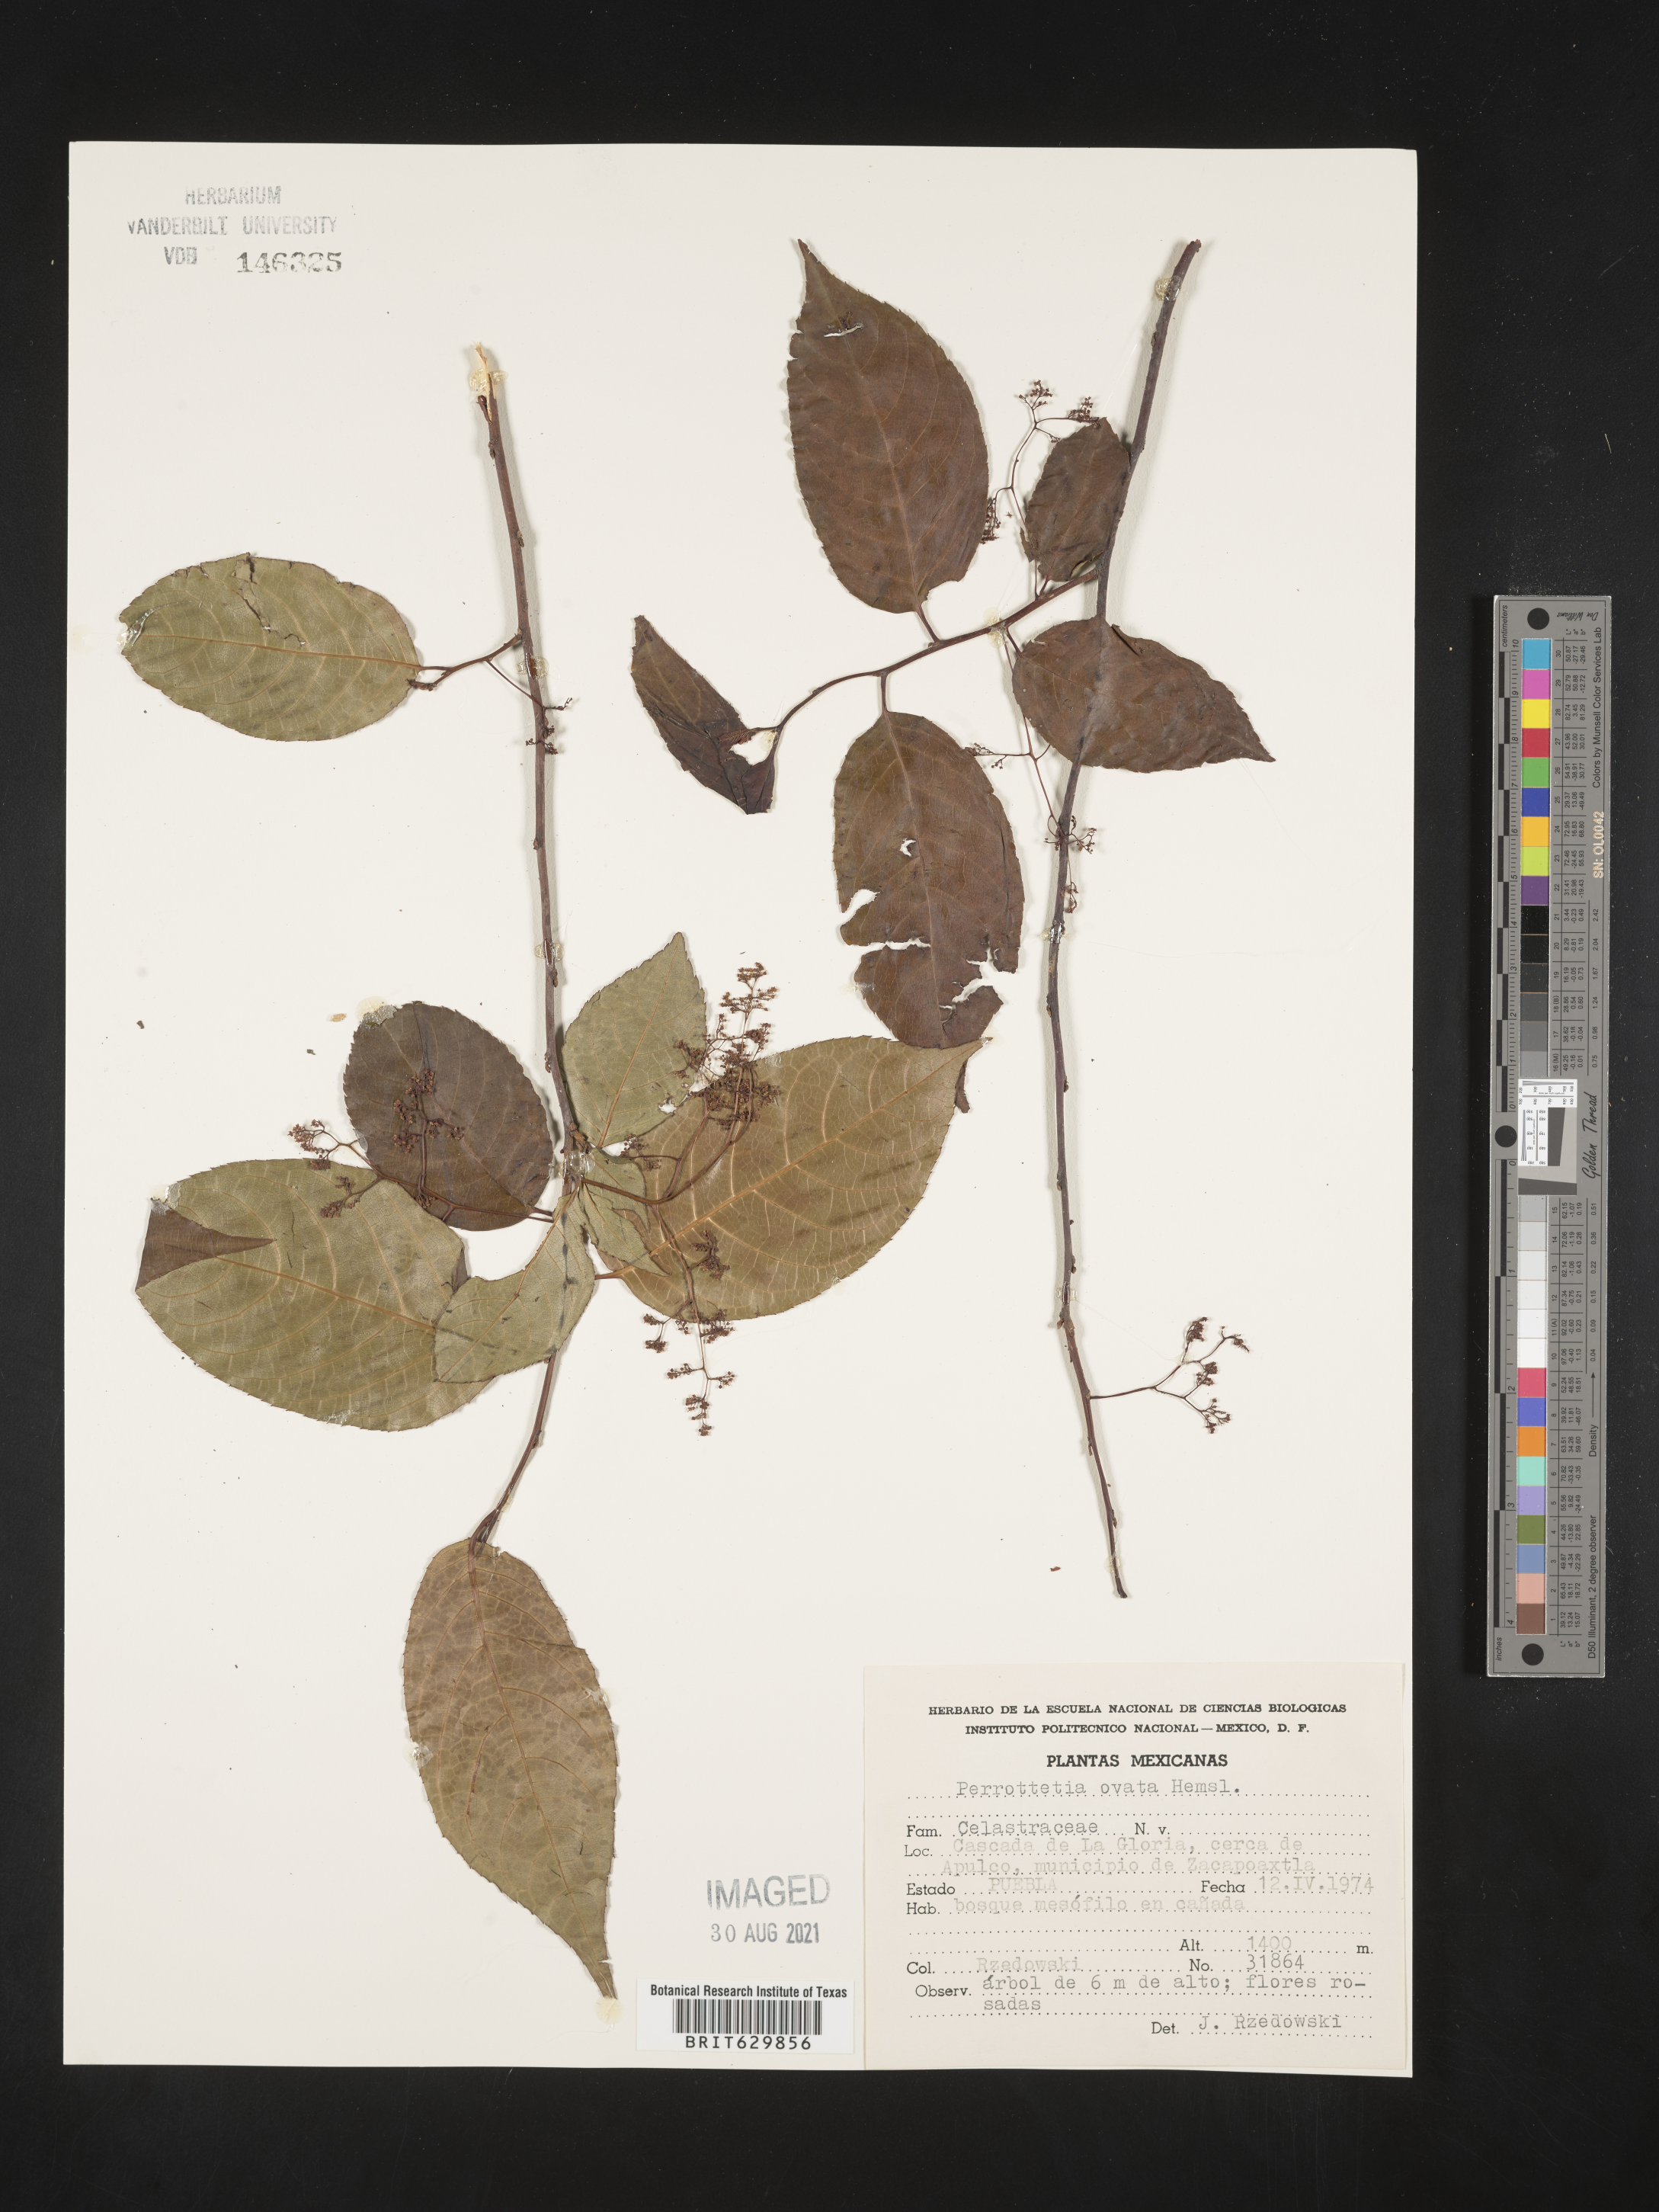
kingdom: Plantae
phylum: Tracheophyta
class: Magnoliopsida
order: Huerteales
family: Dipentodontaceae
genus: Perrottetia
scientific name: Perrottetia
